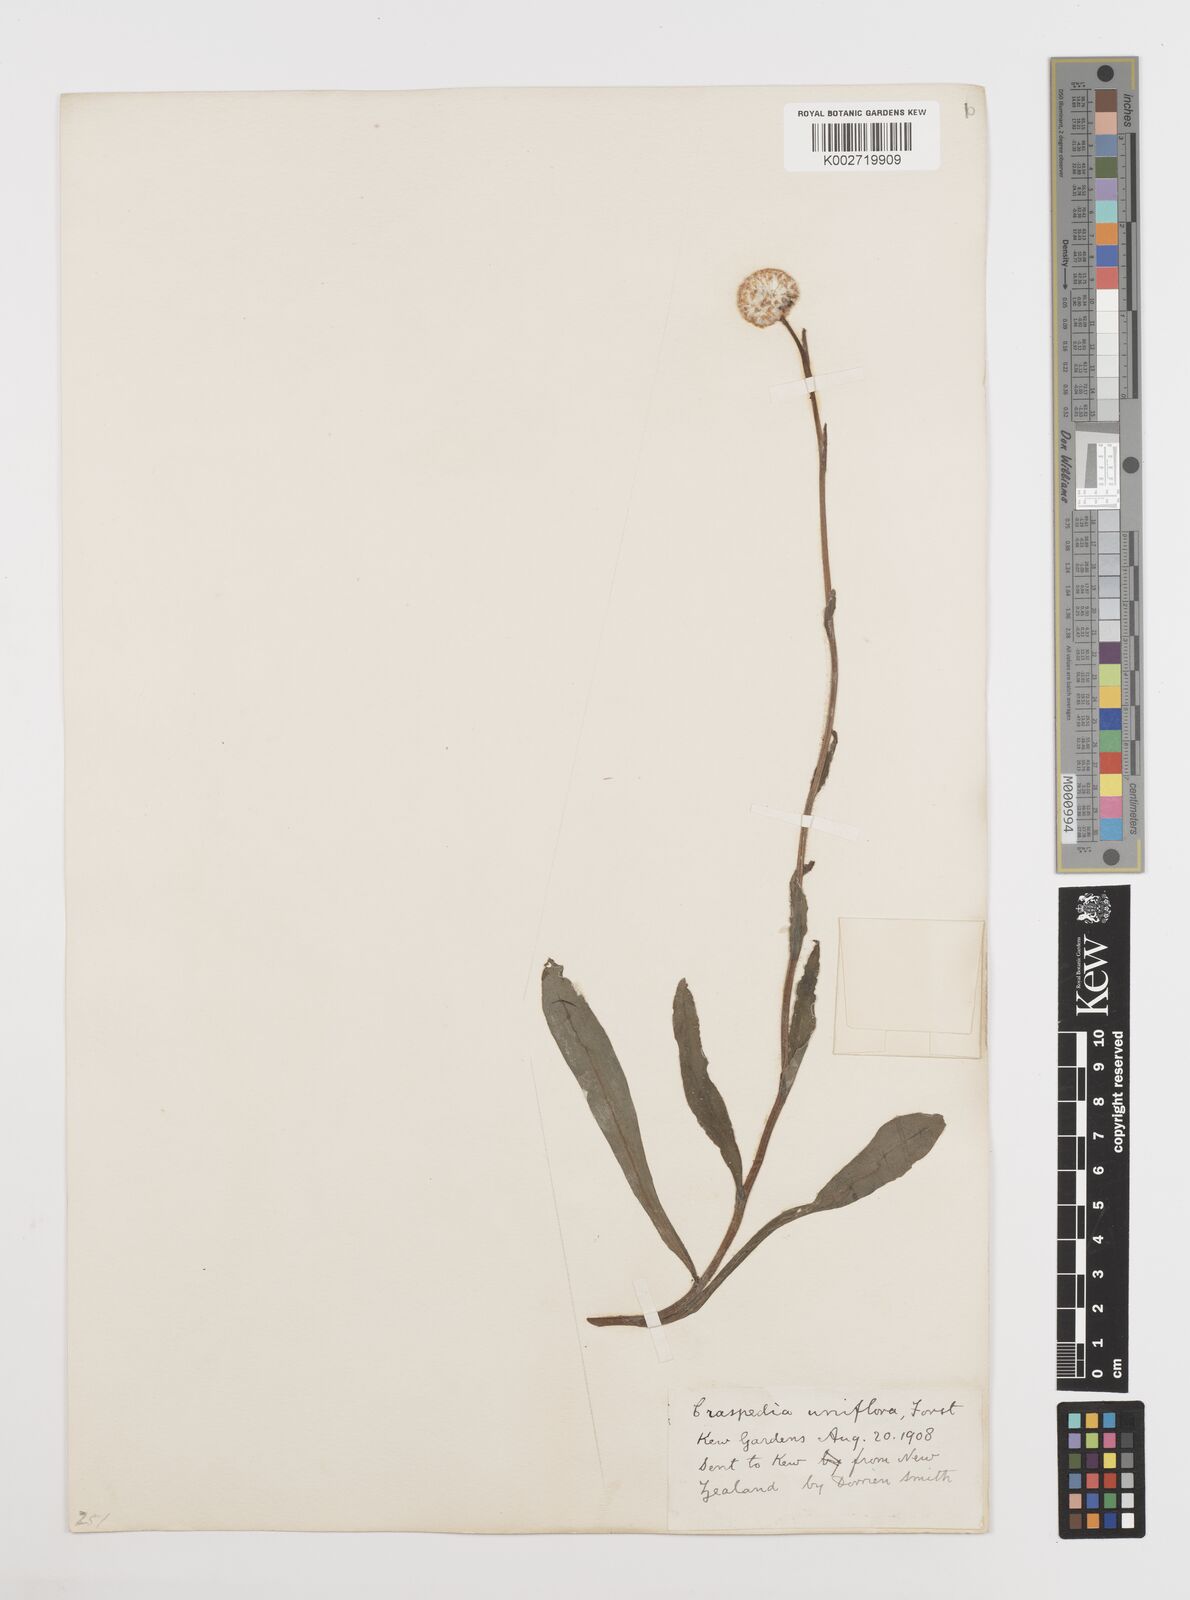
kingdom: Plantae
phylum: Tracheophyta
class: Magnoliopsida
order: Asterales
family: Asteraceae
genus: Craspedia
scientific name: Craspedia macrocephala
